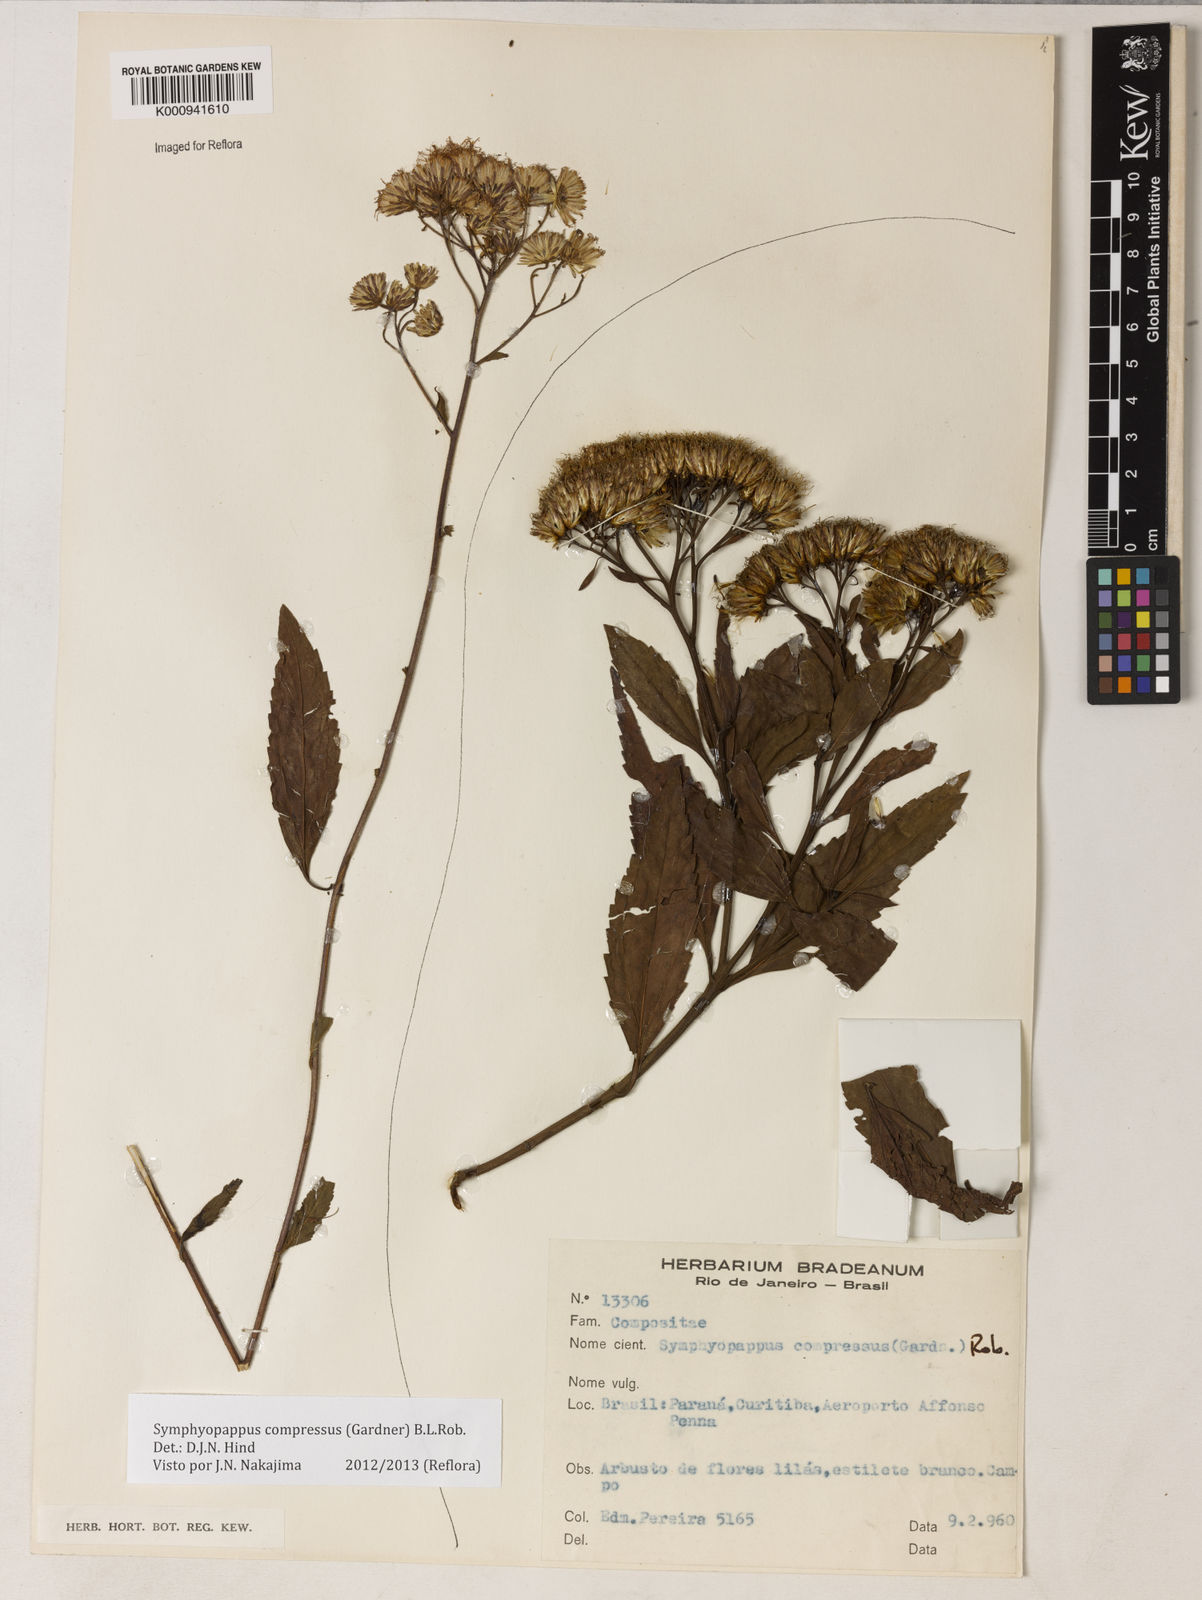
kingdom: Plantae
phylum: Tracheophyta
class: Magnoliopsida
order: Asterales
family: Asteraceae
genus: Symphyopappus
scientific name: Symphyopappus compressus
